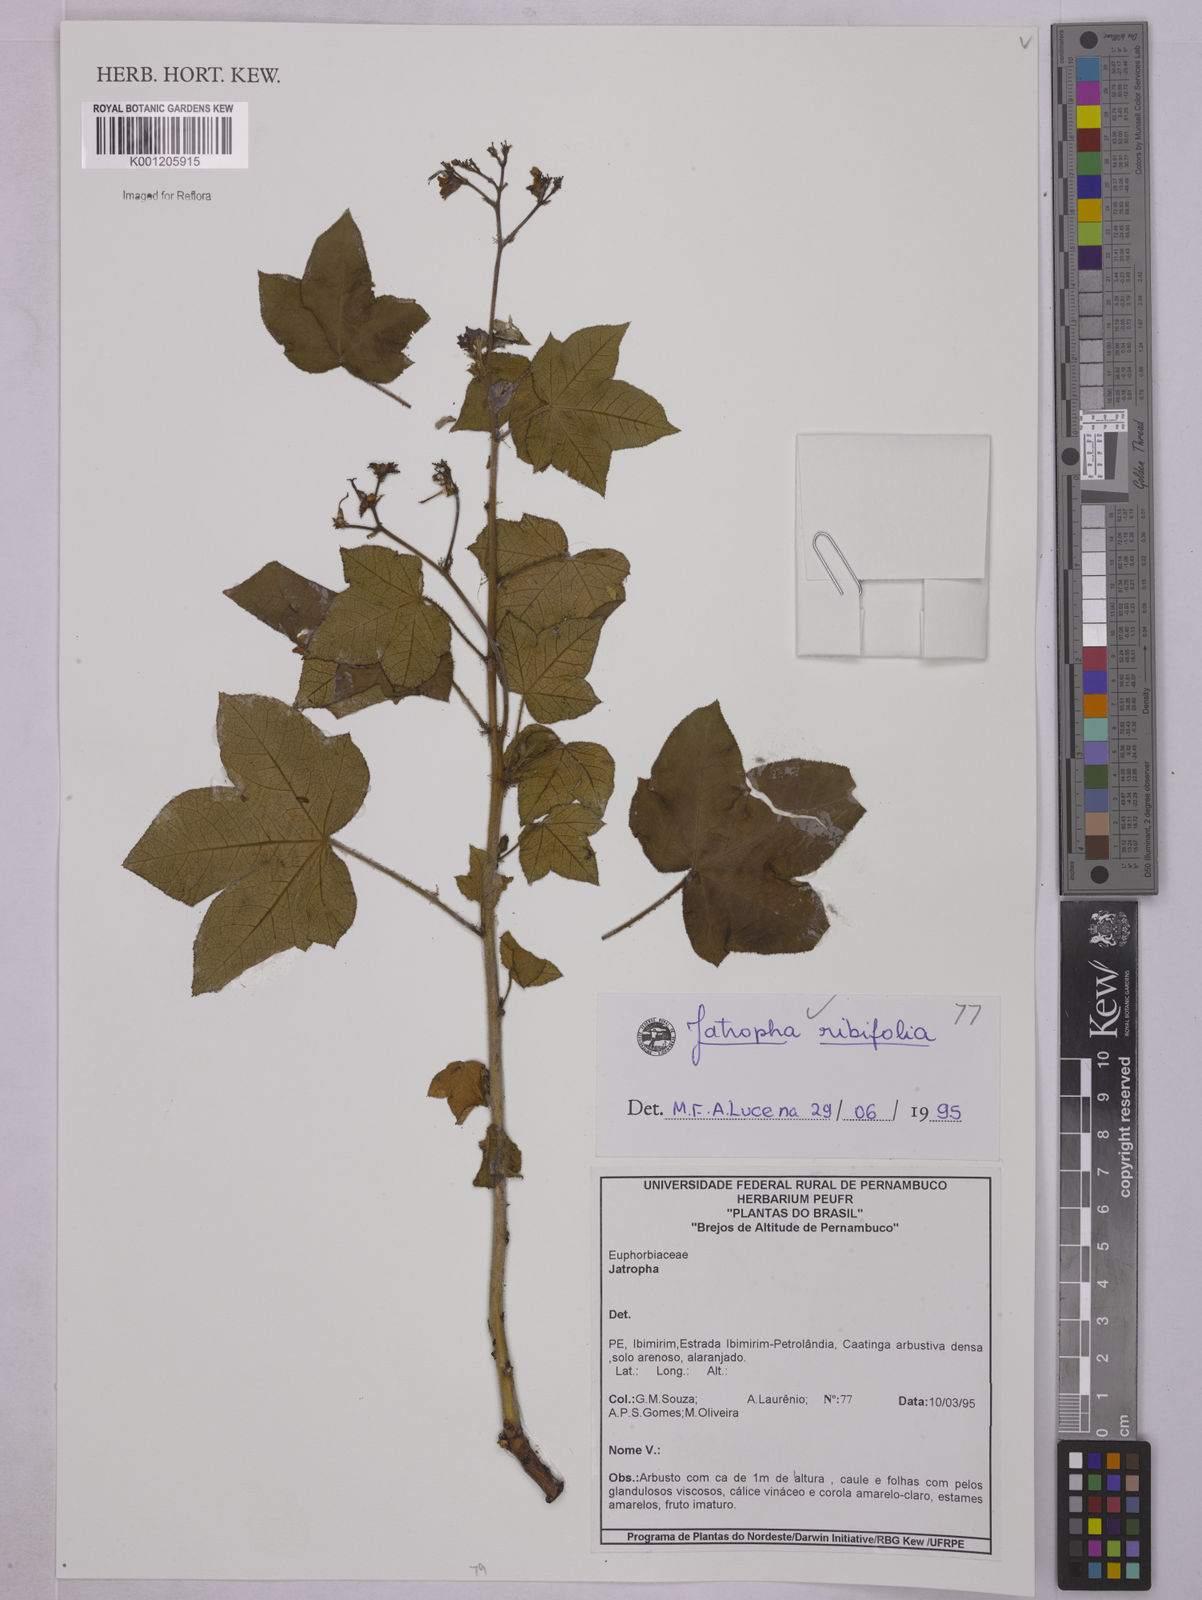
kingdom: Plantae
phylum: Tracheophyta
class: Magnoliopsida
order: Malpighiales
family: Euphorbiaceae
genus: Jatropha
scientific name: Jatropha ribifolia
